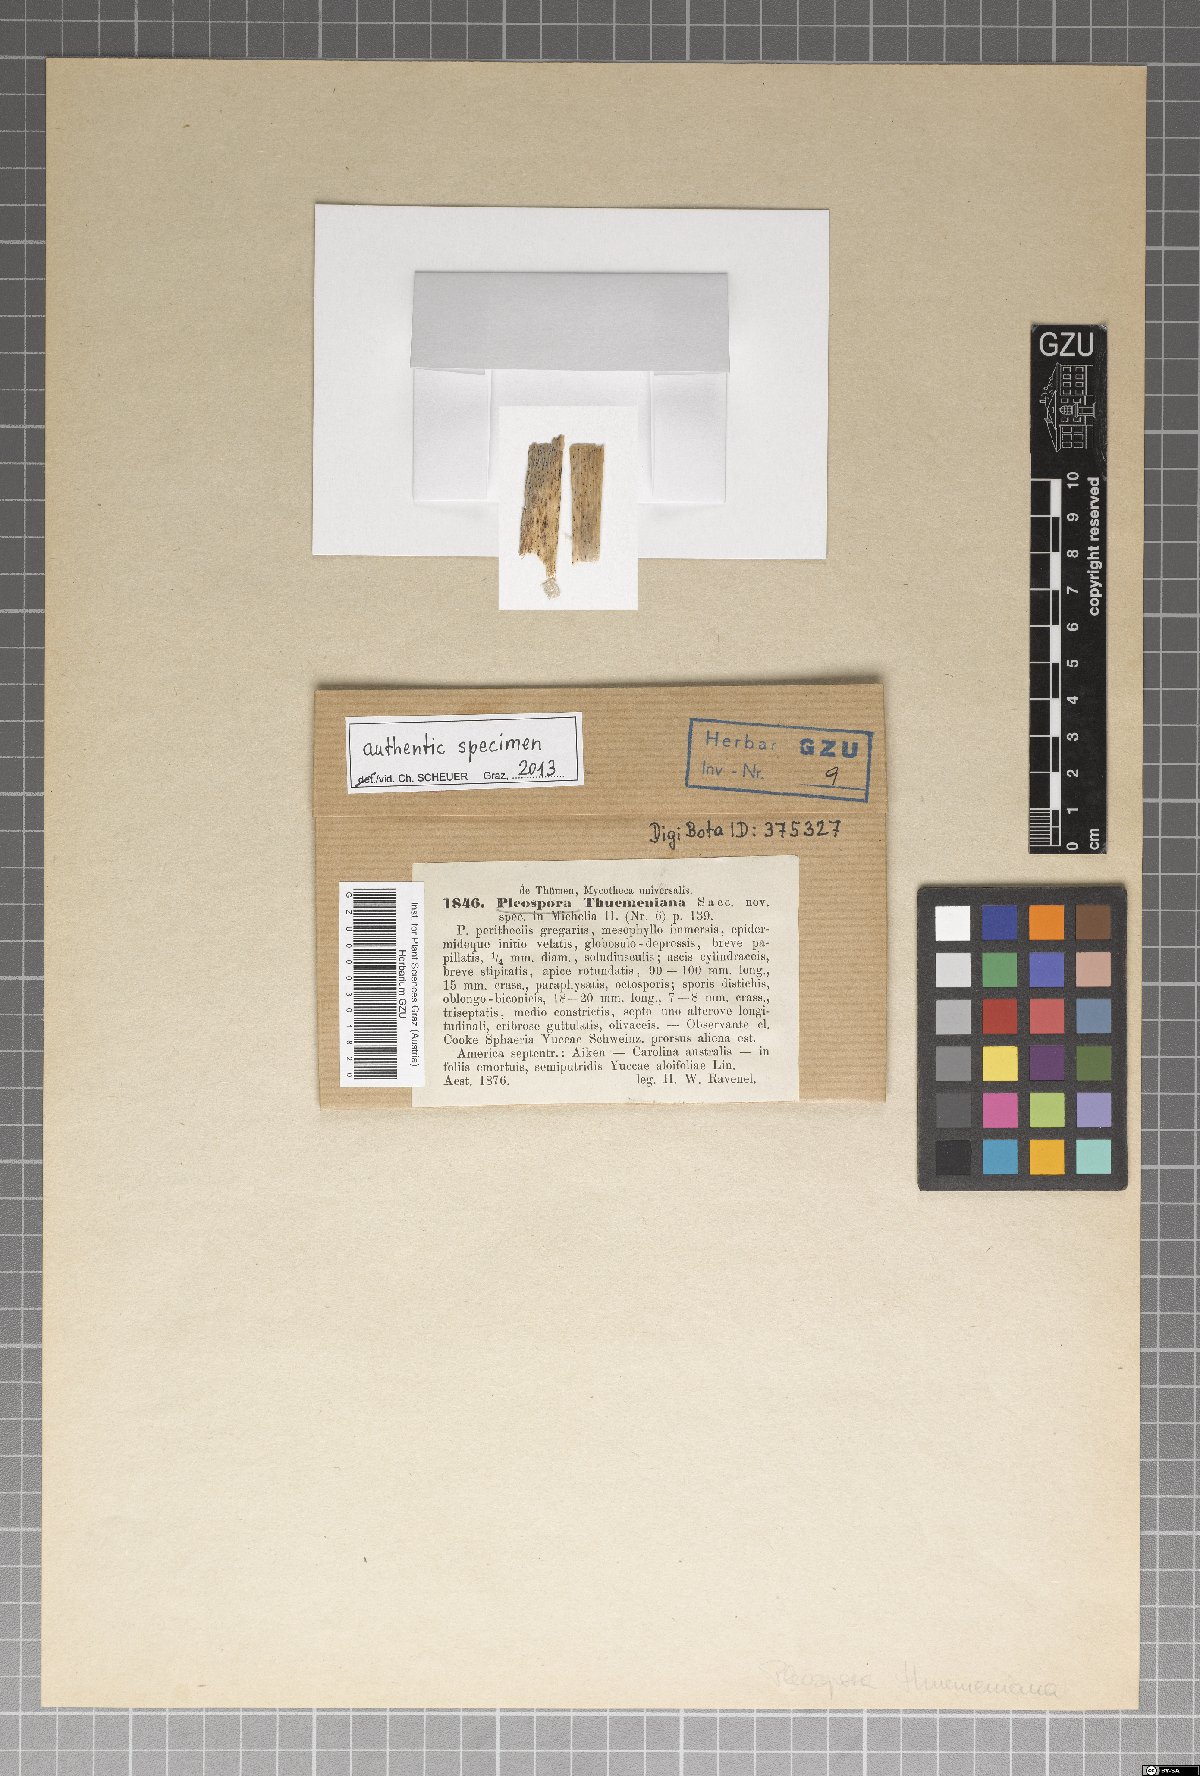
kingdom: Fungi
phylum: Ascomycota
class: Dothideomycetes
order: Pleosporales
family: Didymosphaeriaceae
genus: Montagnula
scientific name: Montagnula thuemeniana
